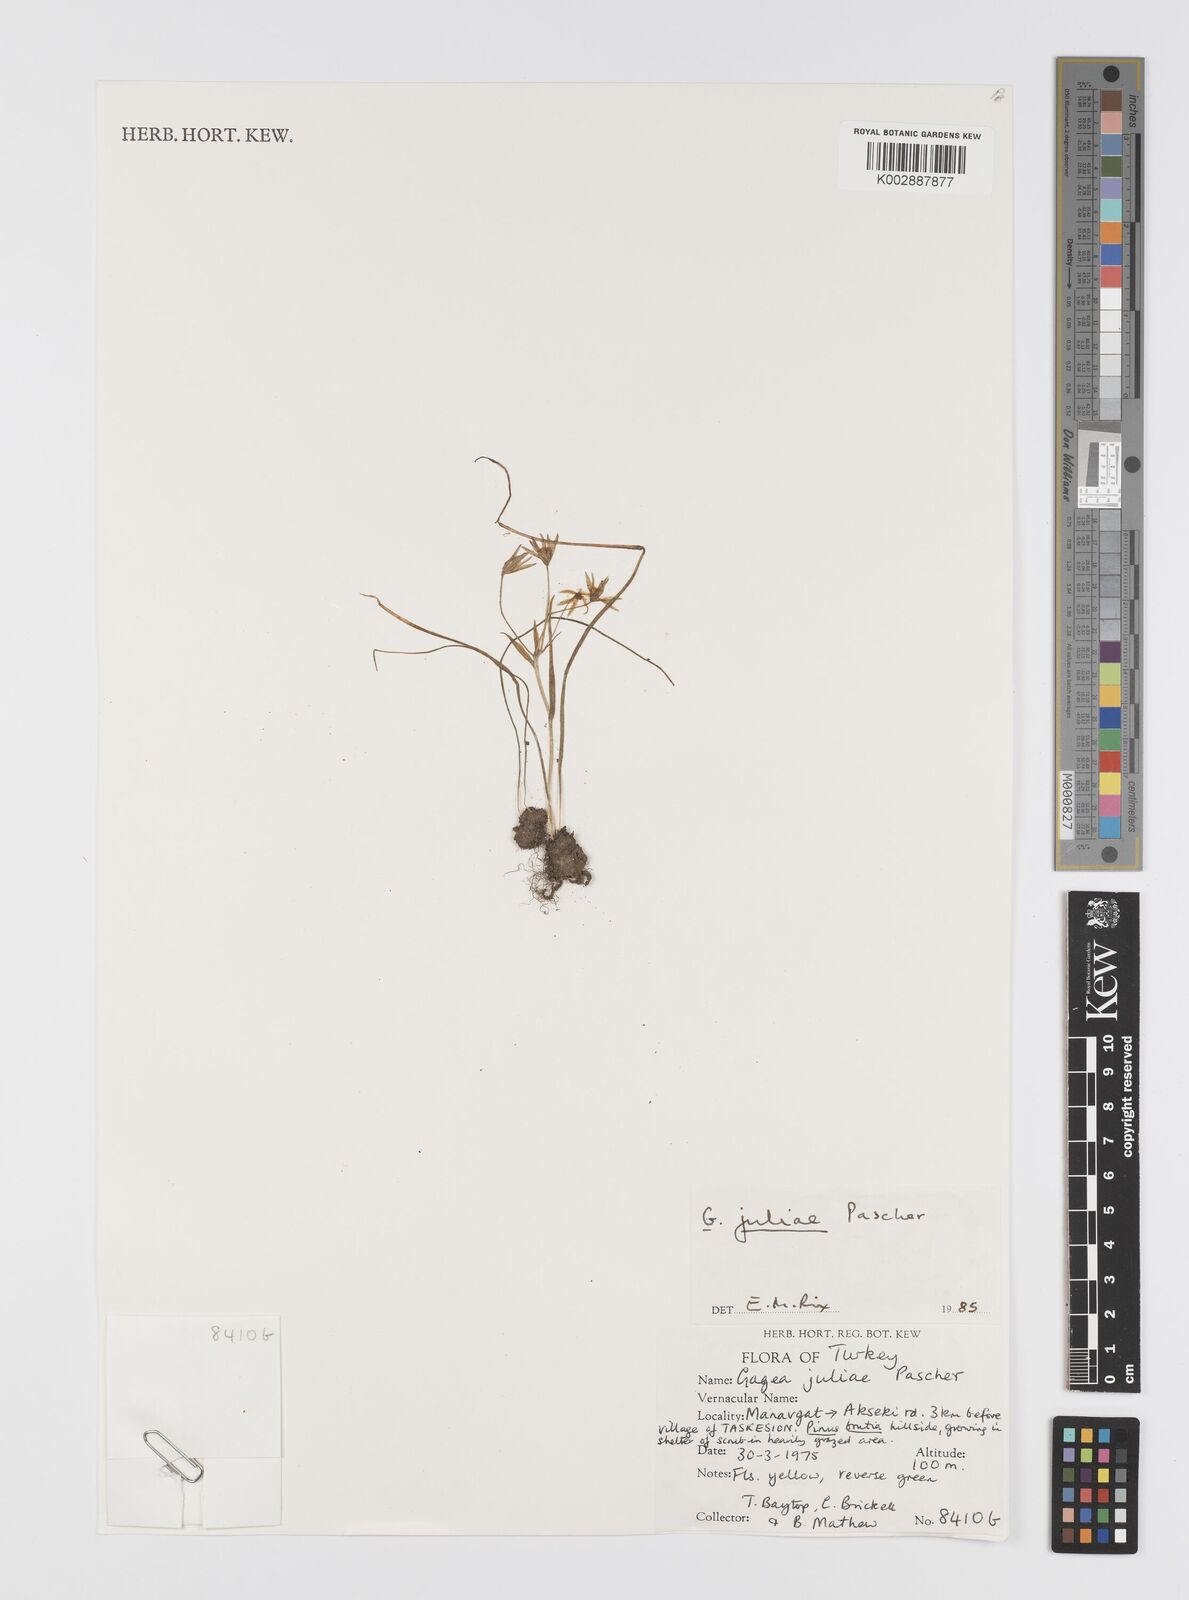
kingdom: Plantae
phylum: Tracheophyta
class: Liliopsida
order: Liliales
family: Liliaceae
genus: Gagea
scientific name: Gagea juliae
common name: Julia’s gagea
